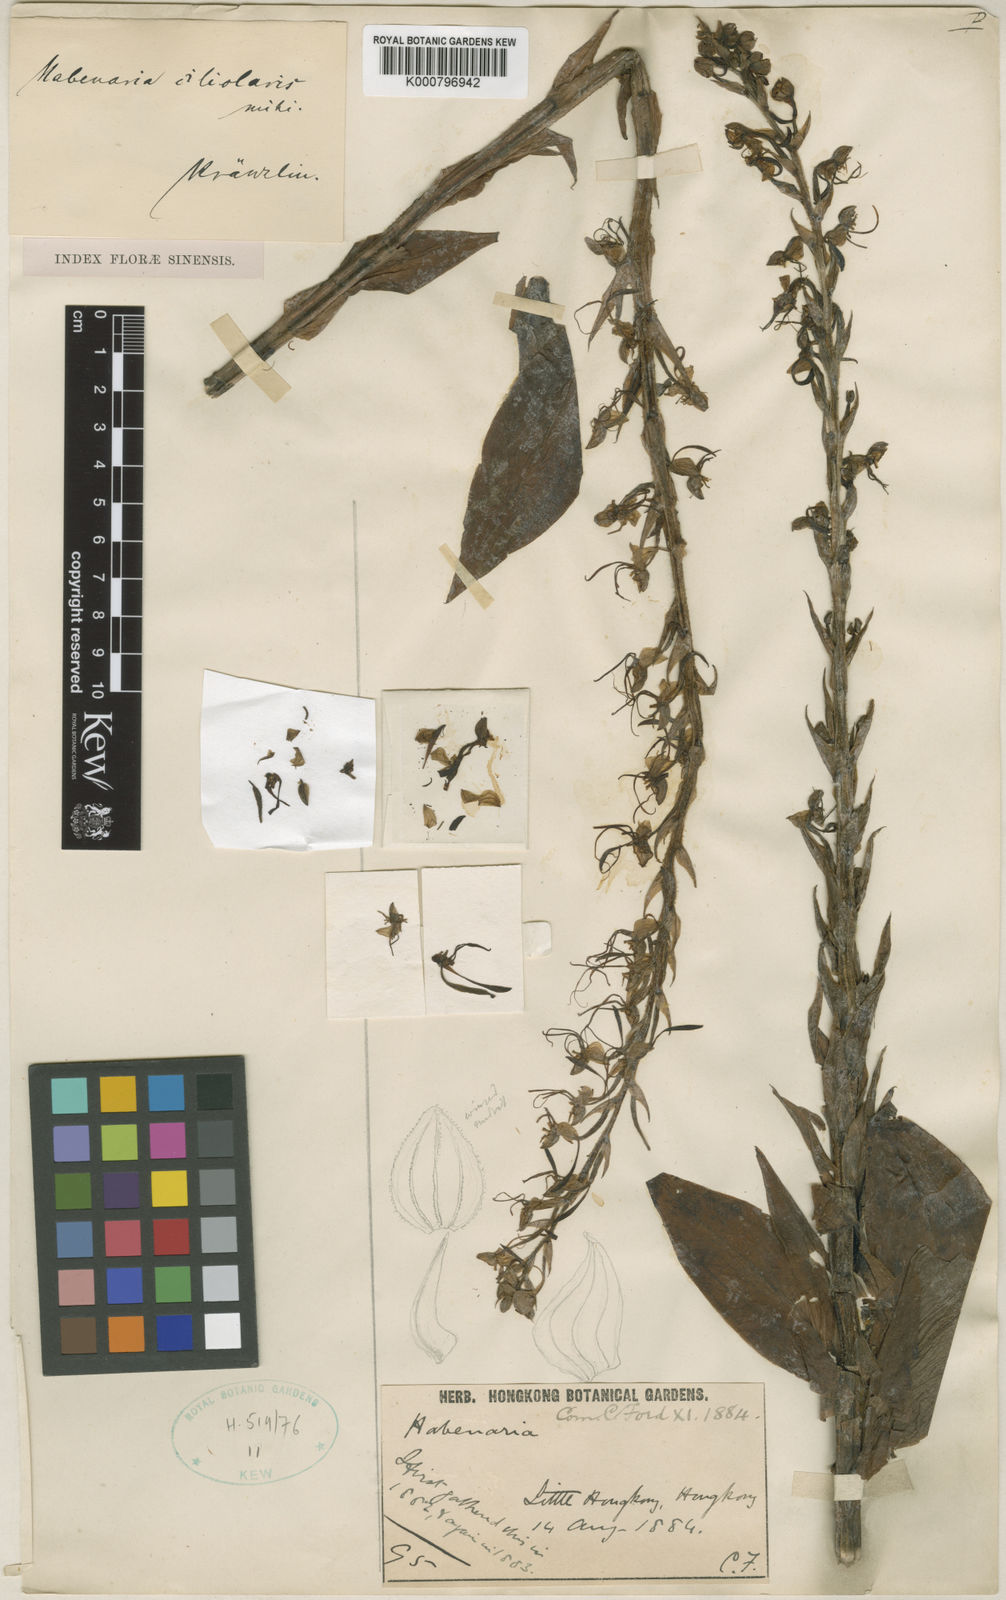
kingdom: Plantae
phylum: Tracheophyta
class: Liliopsida
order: Asparagales
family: Orchidaceae
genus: Habenaria
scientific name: Habenaria ciliolaris
